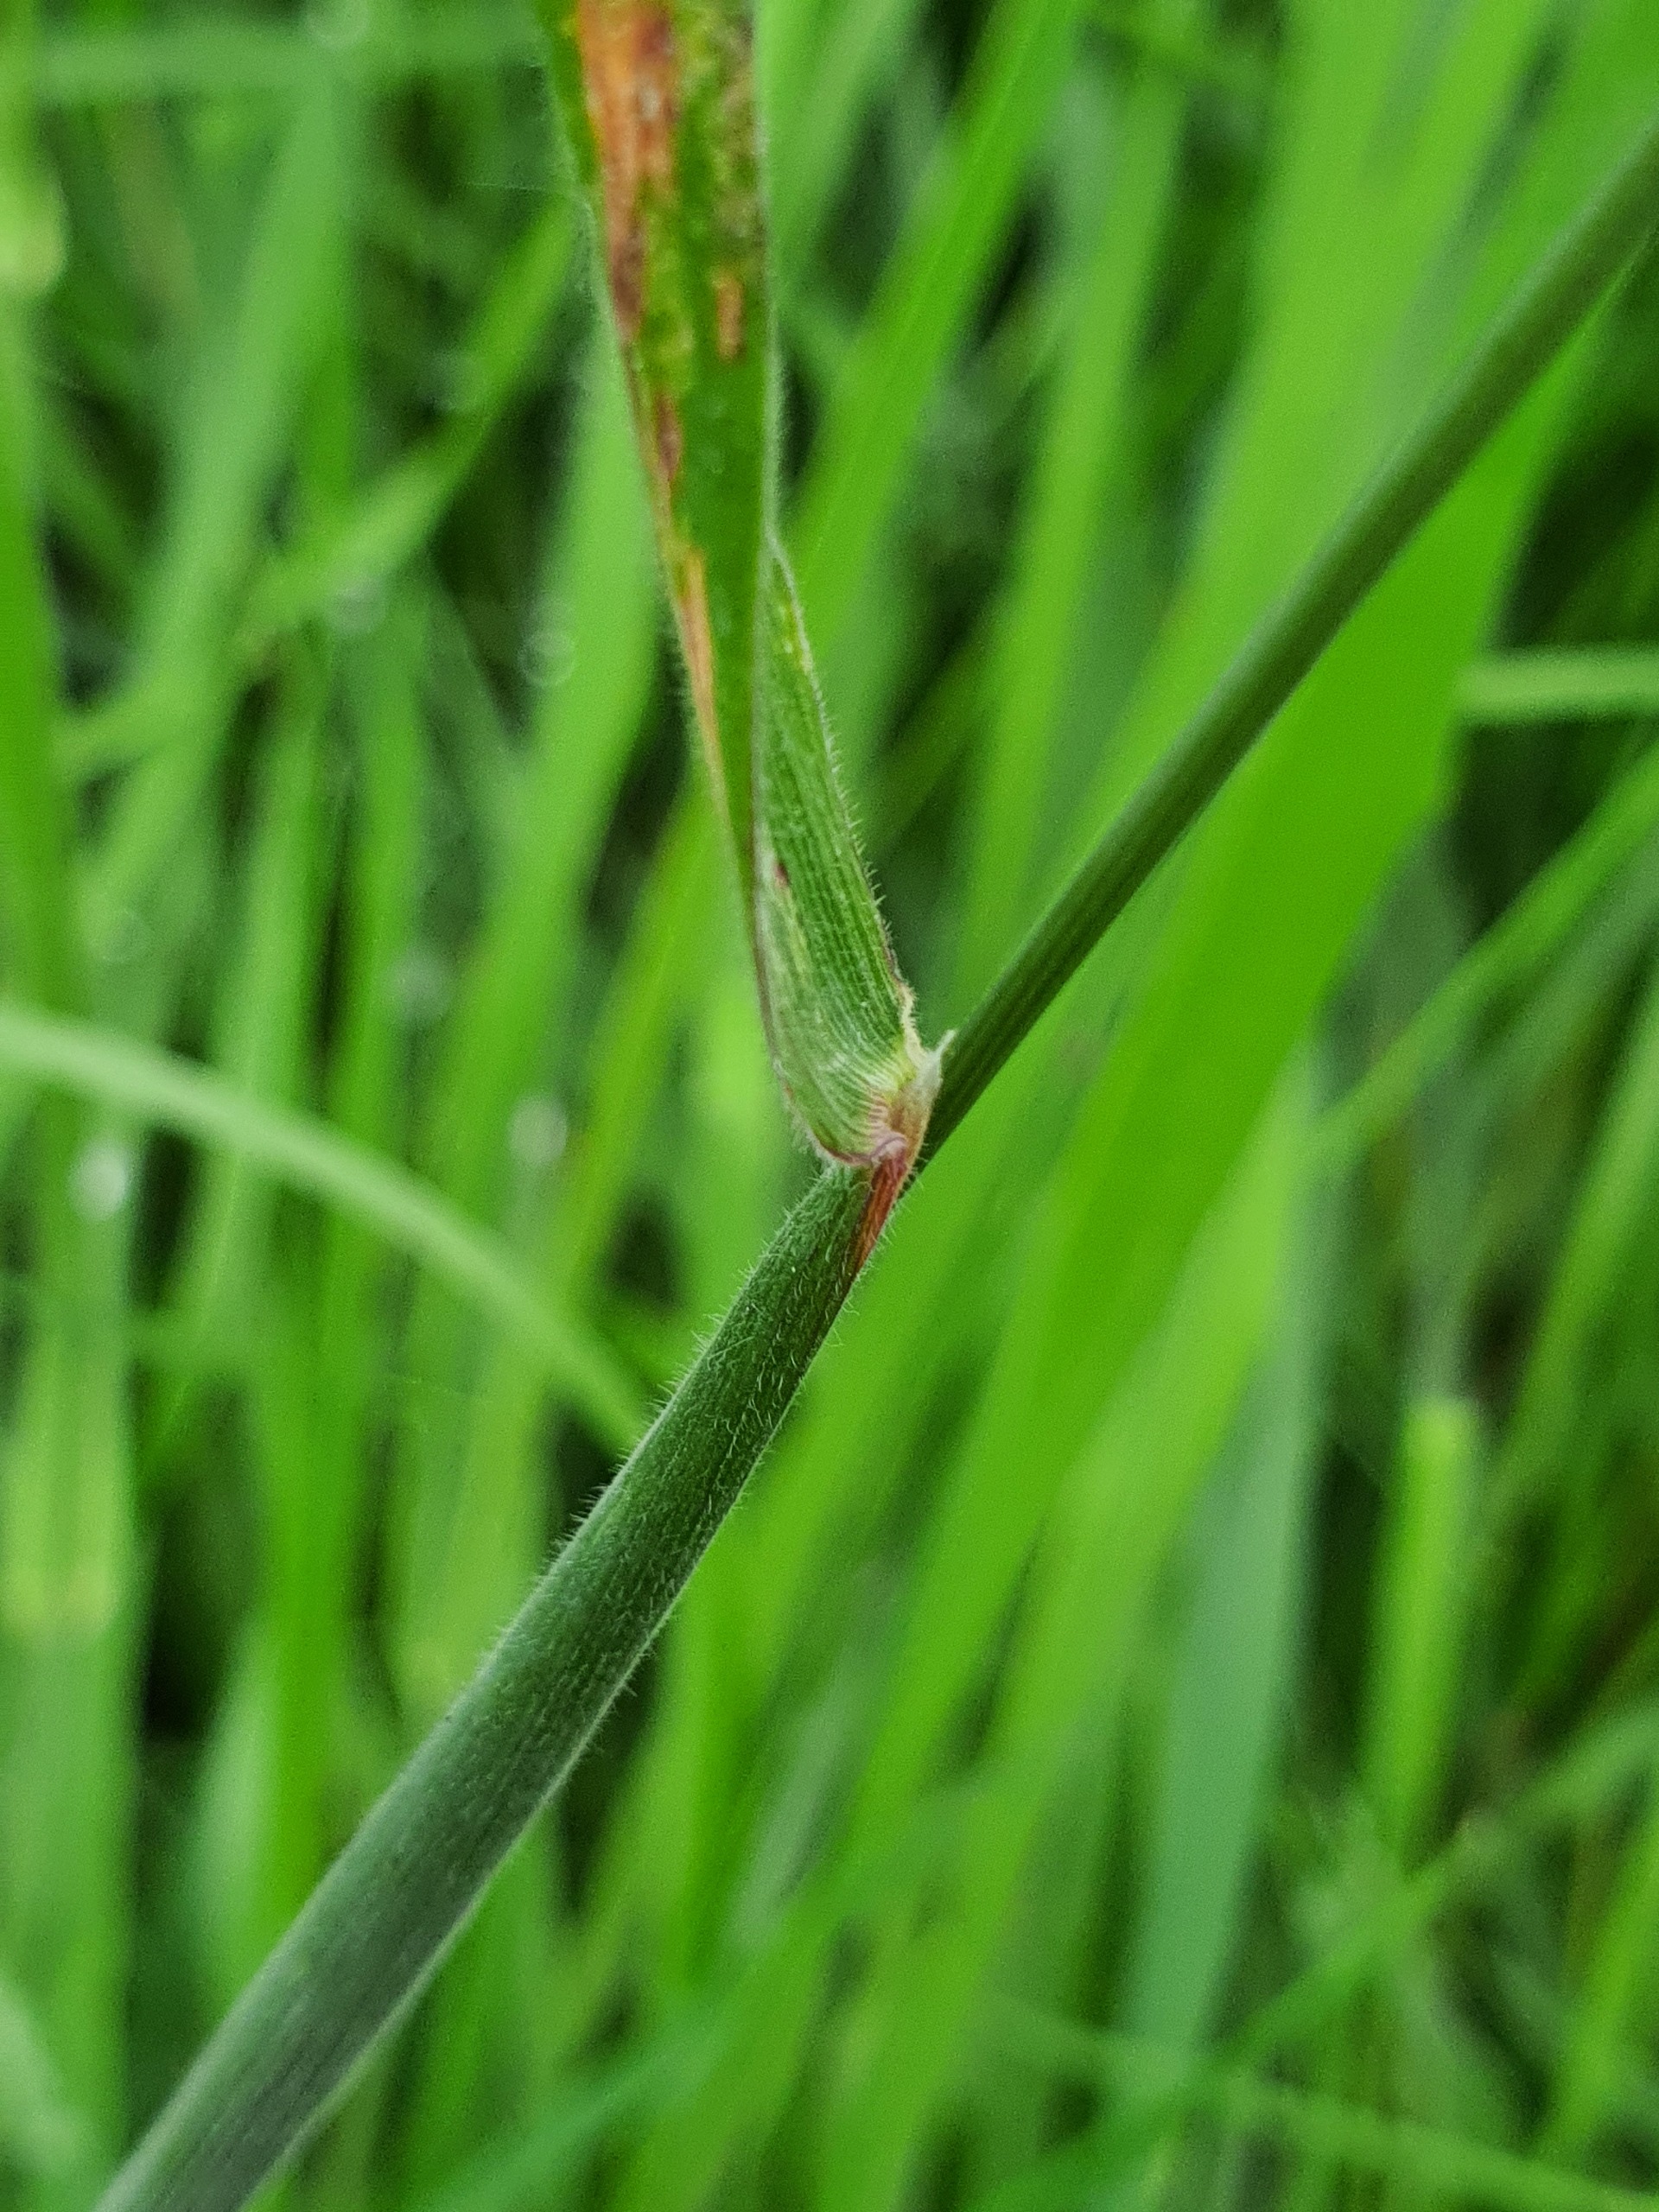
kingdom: Plantae
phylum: Tracheophyta
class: Liliopsida
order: Poales
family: Poaceae
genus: Holcus
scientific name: Holcus lanatus
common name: Fløjlsgræs
